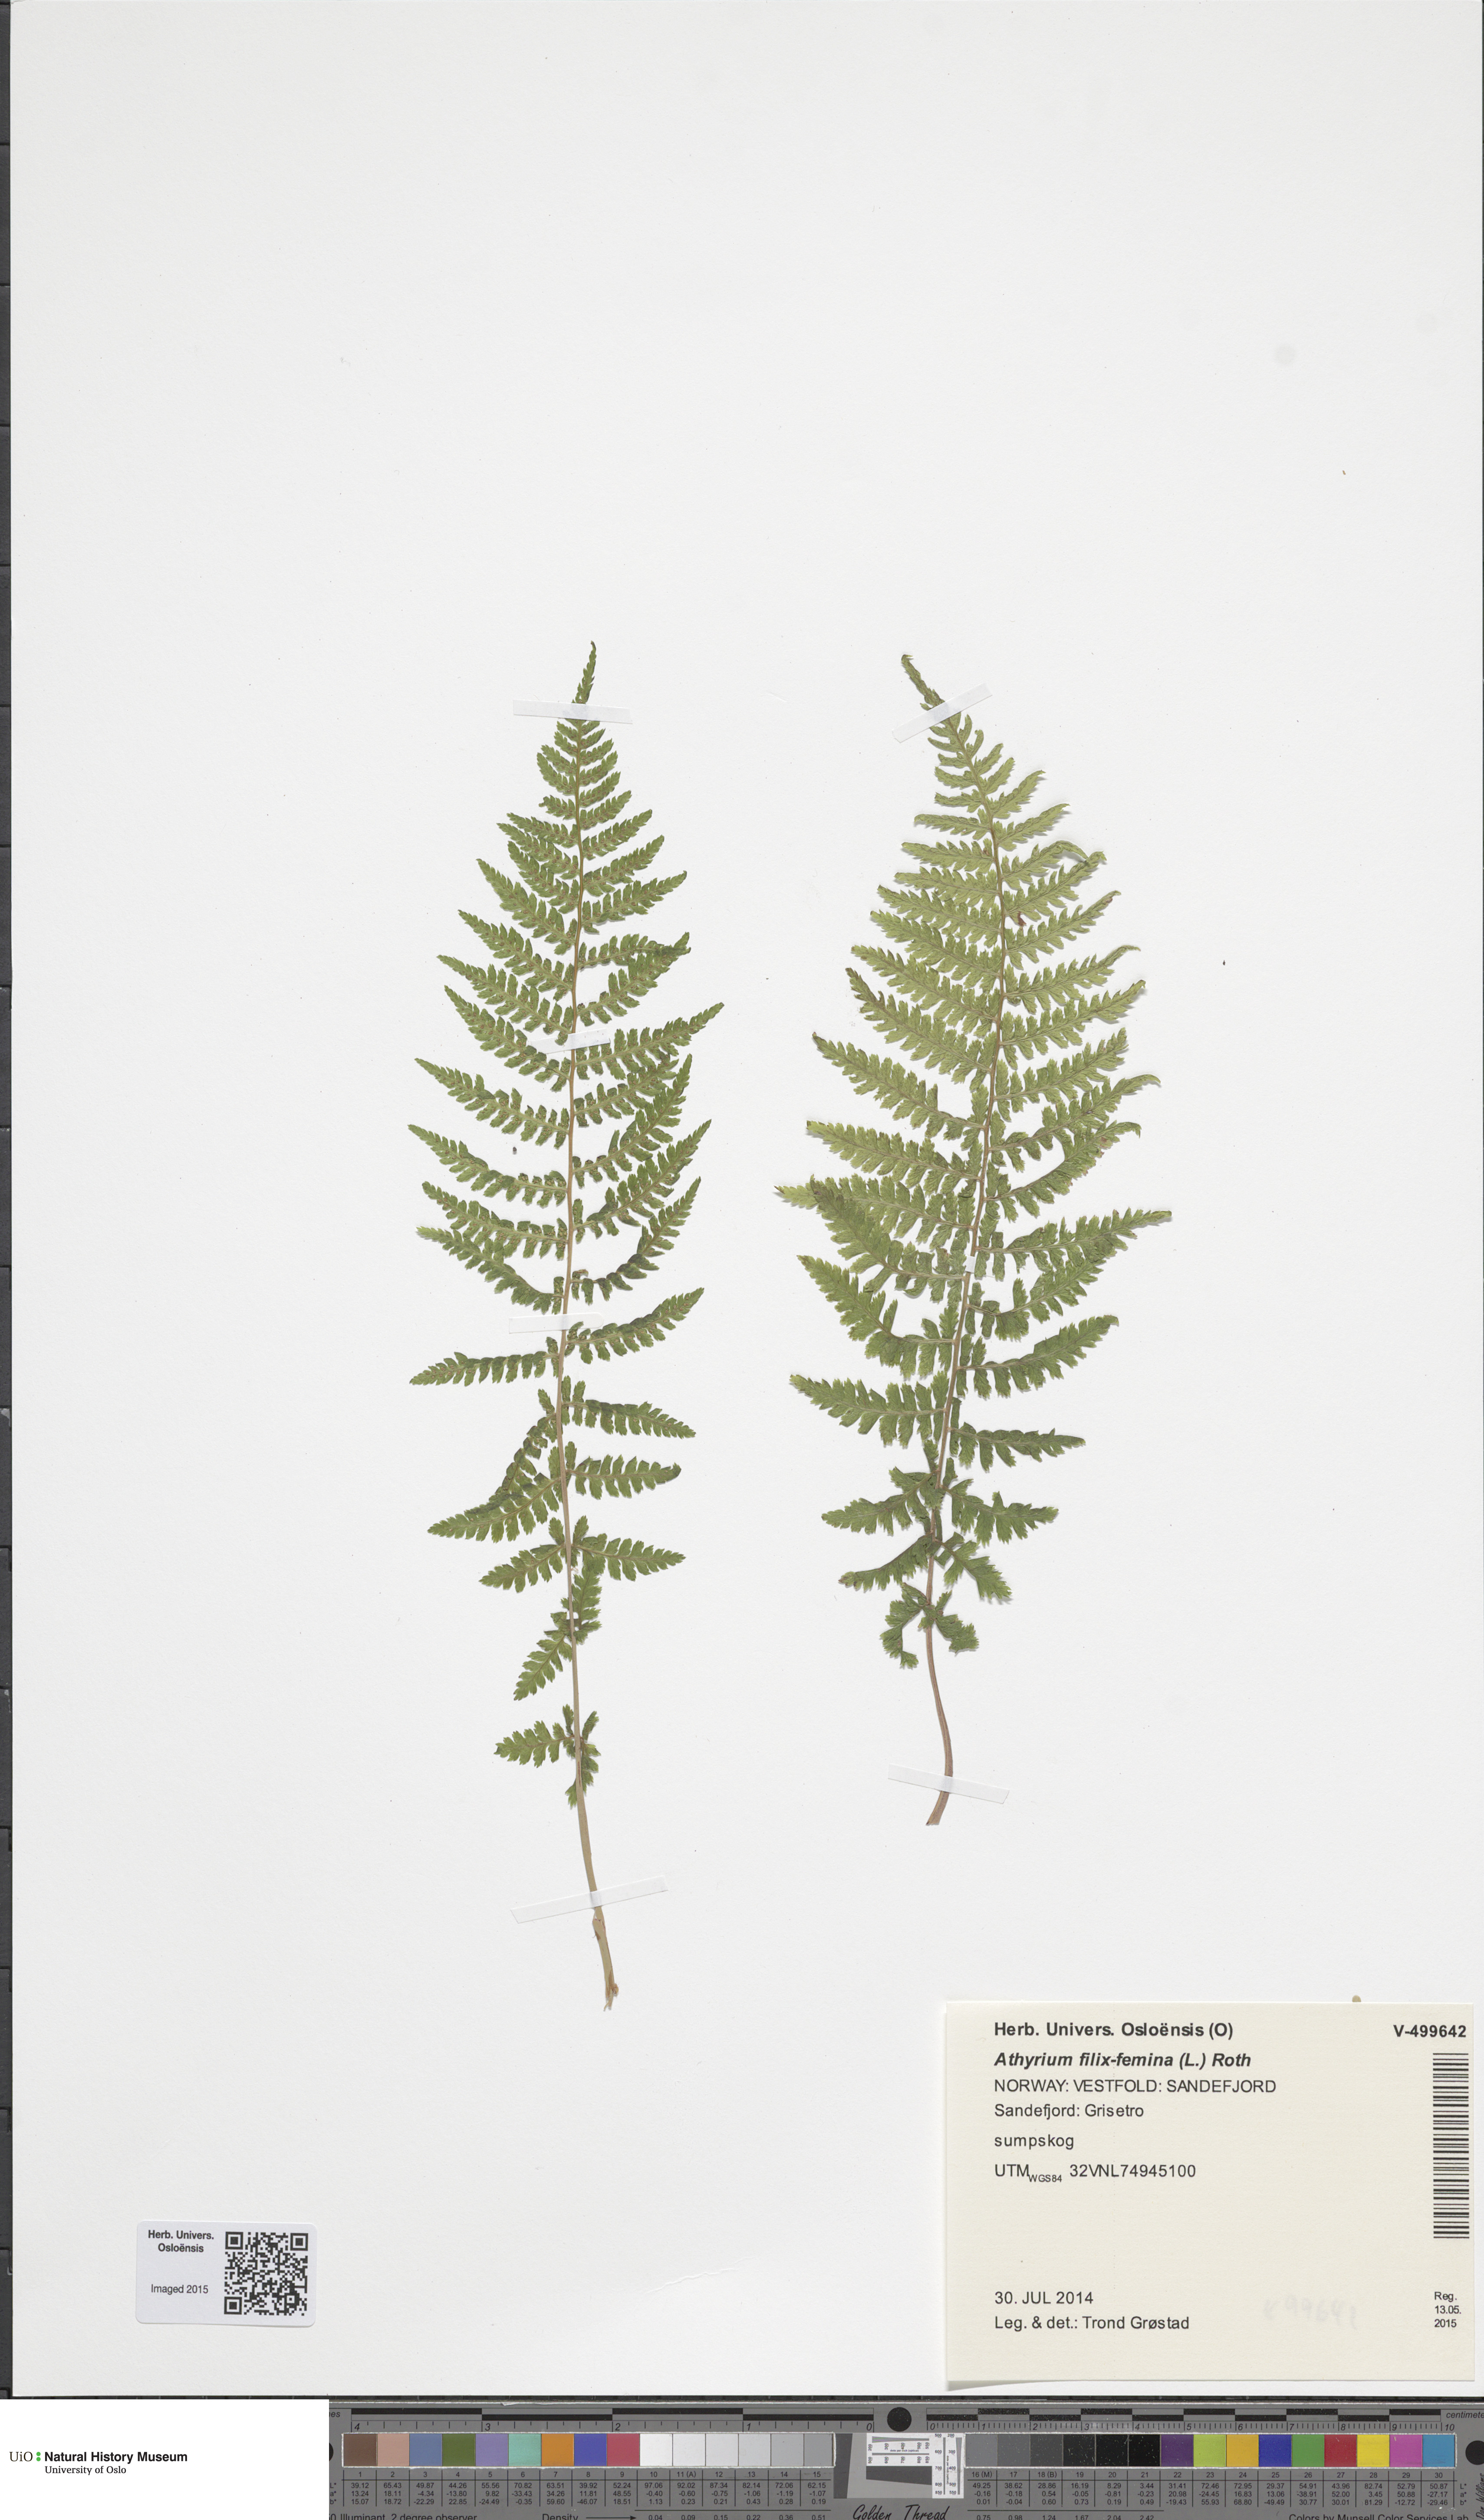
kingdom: Plantae
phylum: Tracheophyta
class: Polypodiopsida
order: Polypodiales
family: Athyriaceae
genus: Athyrium
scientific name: Athyrium filix-femina
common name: Lady fern
